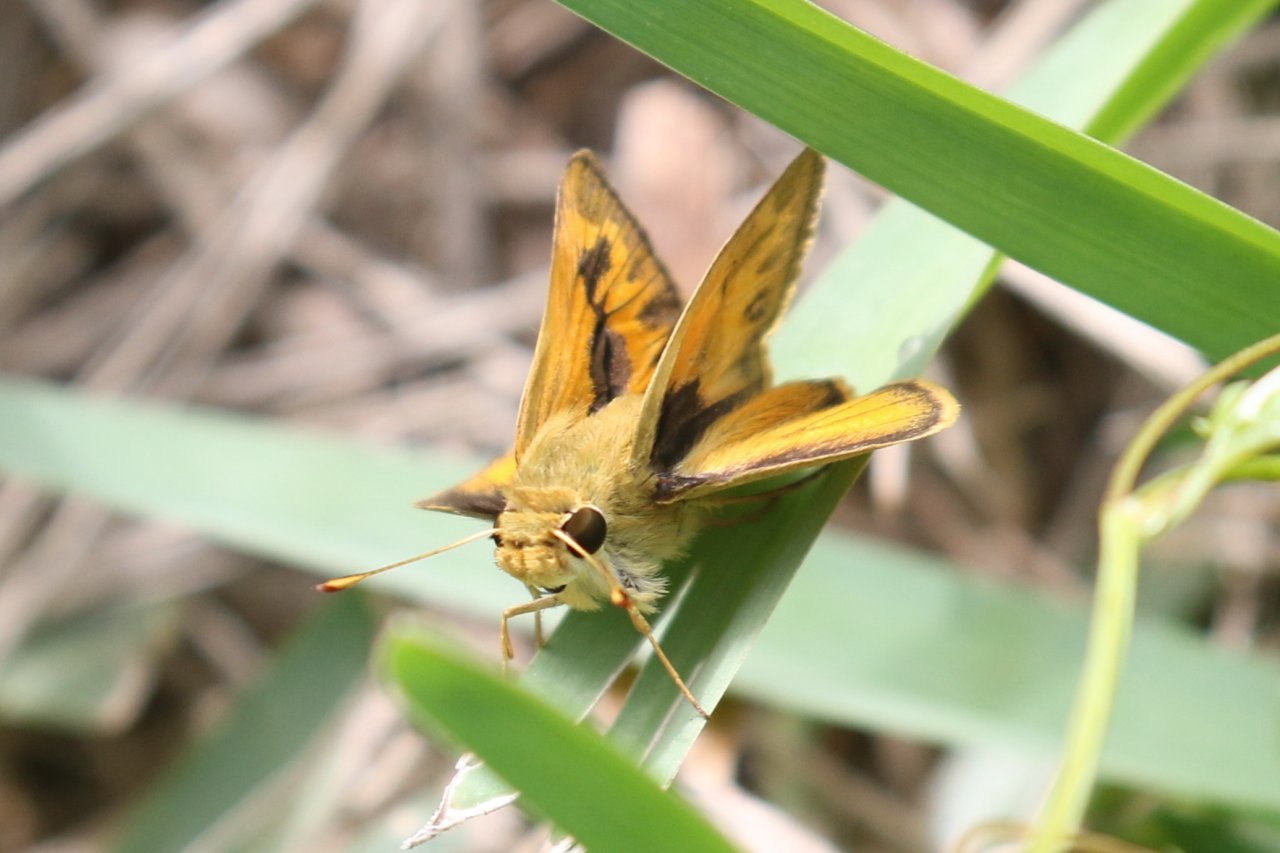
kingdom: Animalia
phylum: Arthropoda
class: Insecta
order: Lepidoptera
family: Hesperiidae
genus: Polites
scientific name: Polites vibex
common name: Whirlabout
